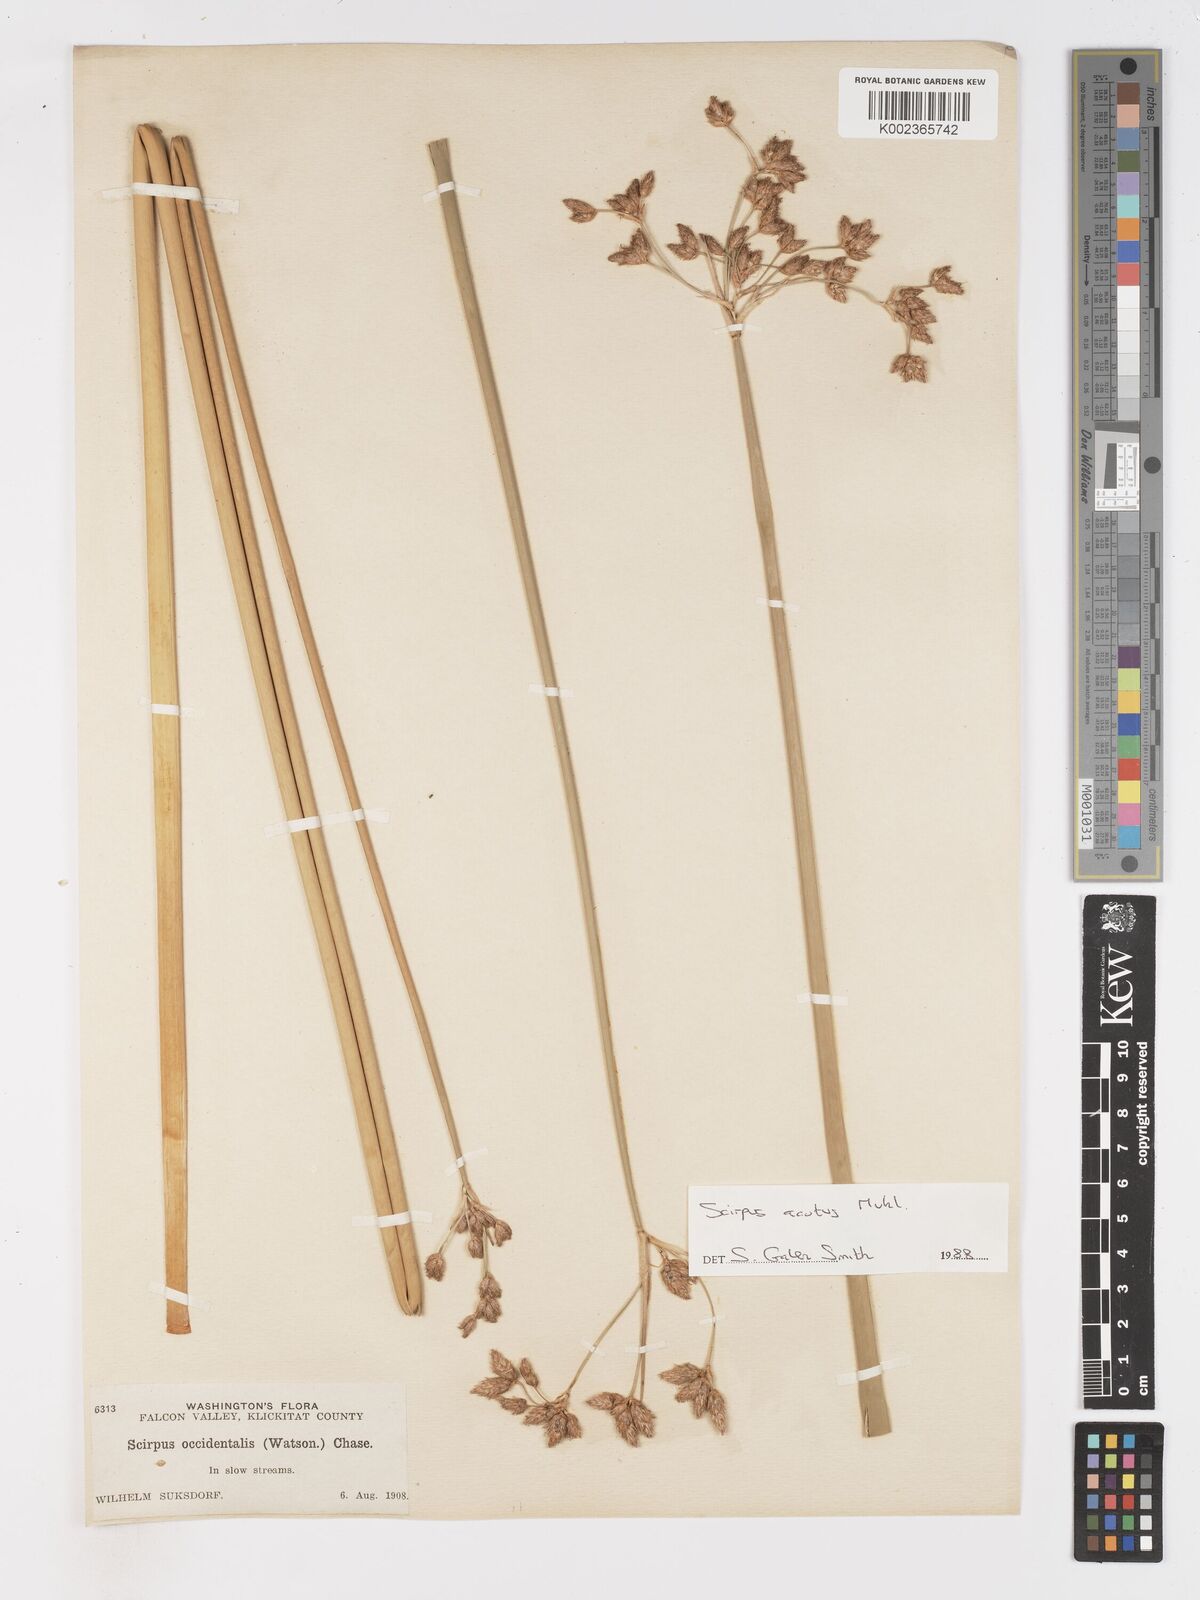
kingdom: Plantae
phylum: Tracheophyta
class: Liliopsida
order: Poales
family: Cyperaceae
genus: Schoenoplectus
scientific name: Schoenoplectus
